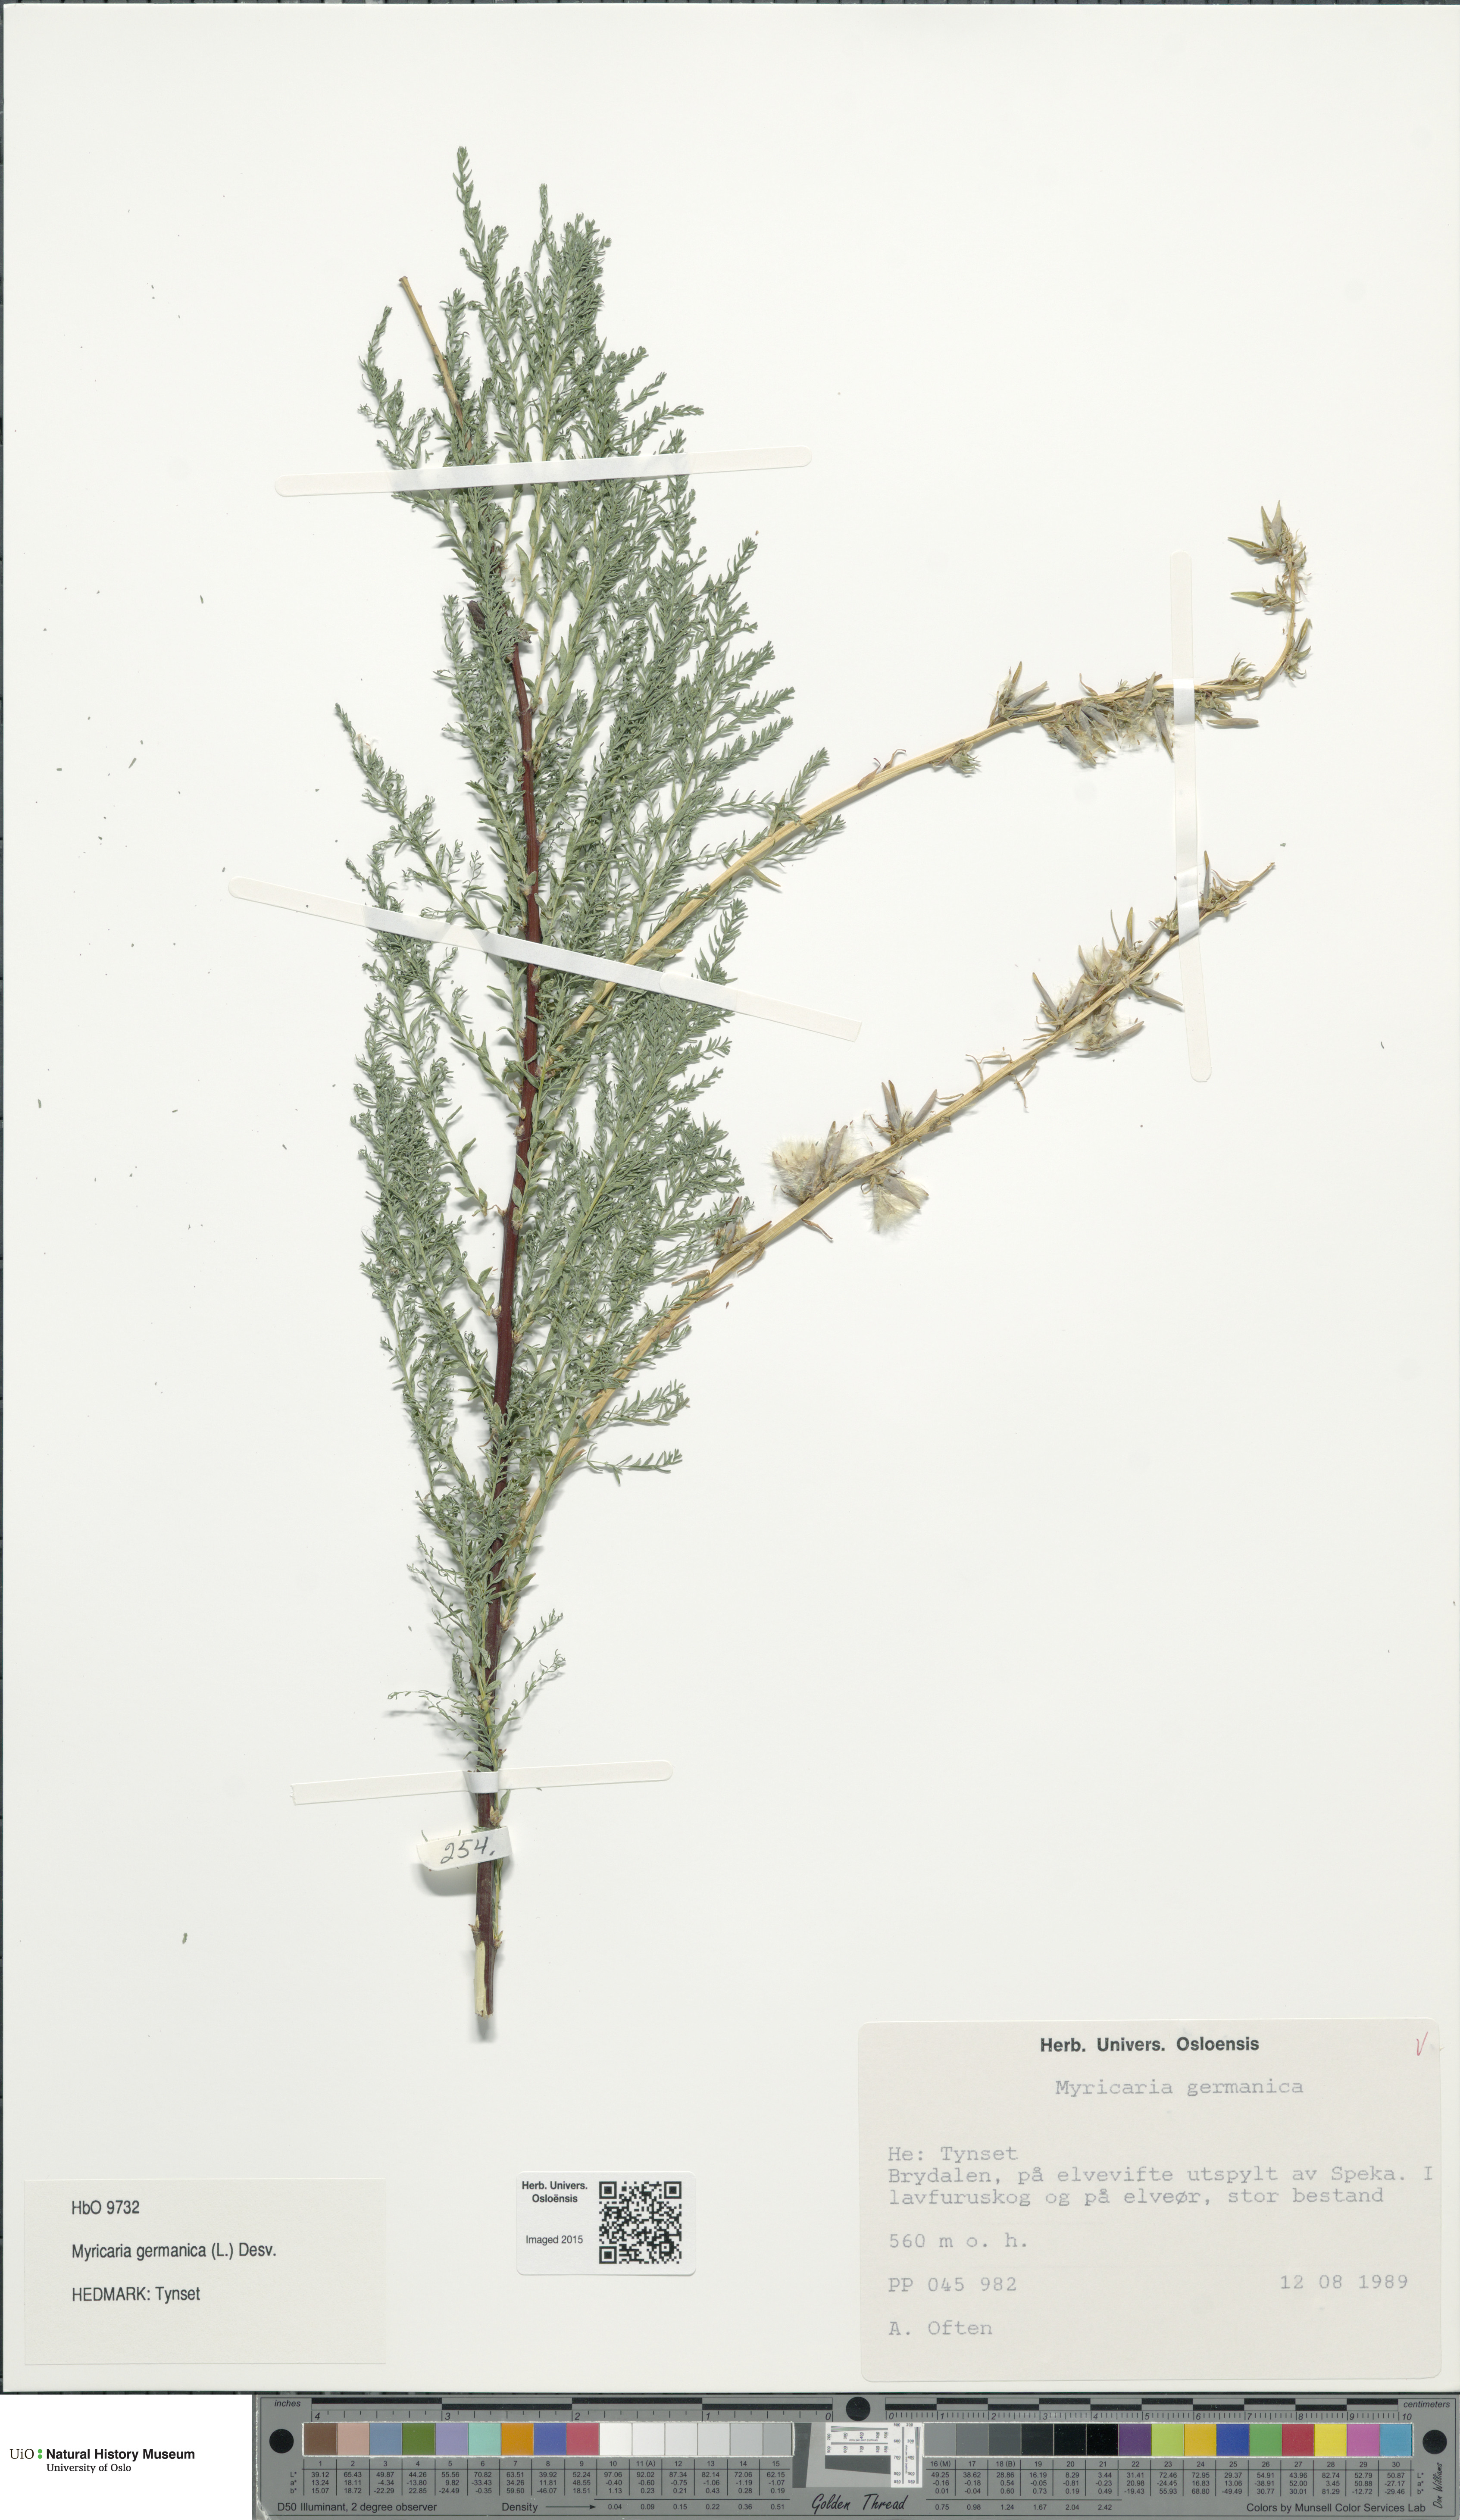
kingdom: Plantae
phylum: Tracheophyta
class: Magnoliopsida
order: Caryophyllales
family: Tamaricaceae
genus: Myricaria
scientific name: Myricaria germanica
